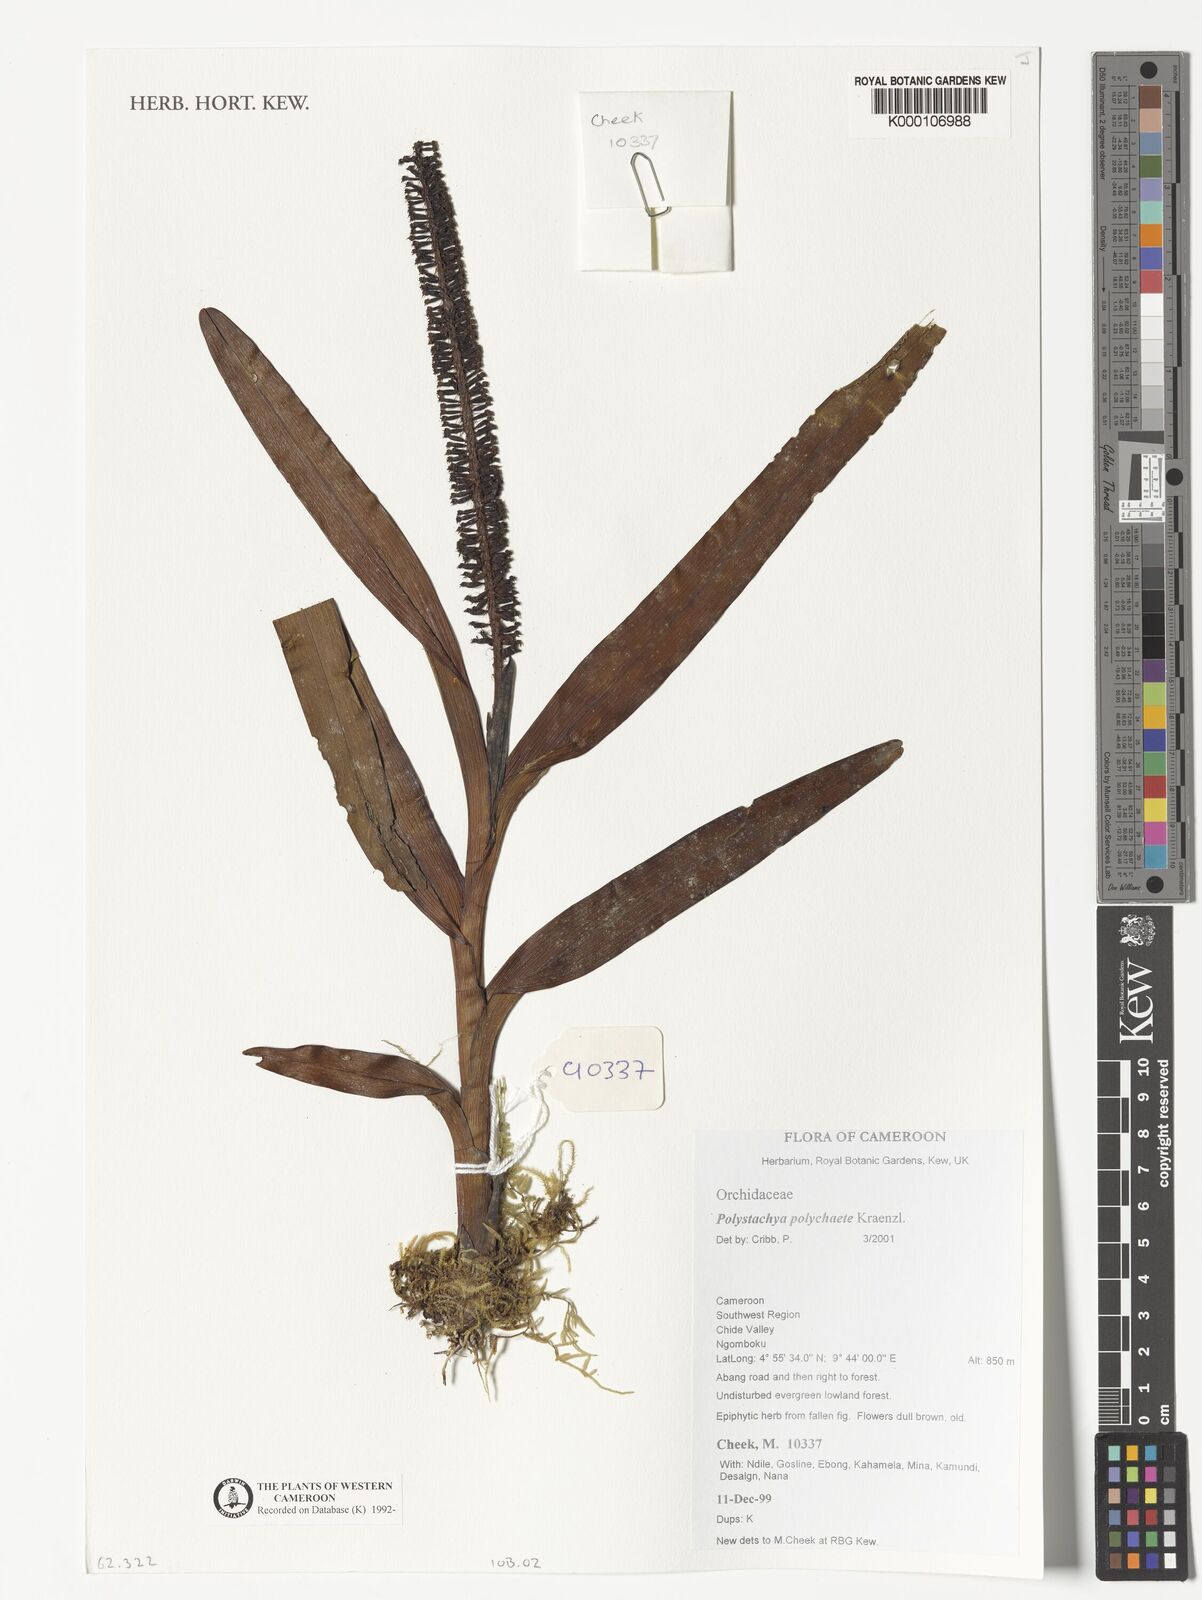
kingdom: Plantae
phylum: Tracheophyta
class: Liliopsida
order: Asparagales
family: Orchidaceae
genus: Polystachya
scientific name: Polystachya polychaete
